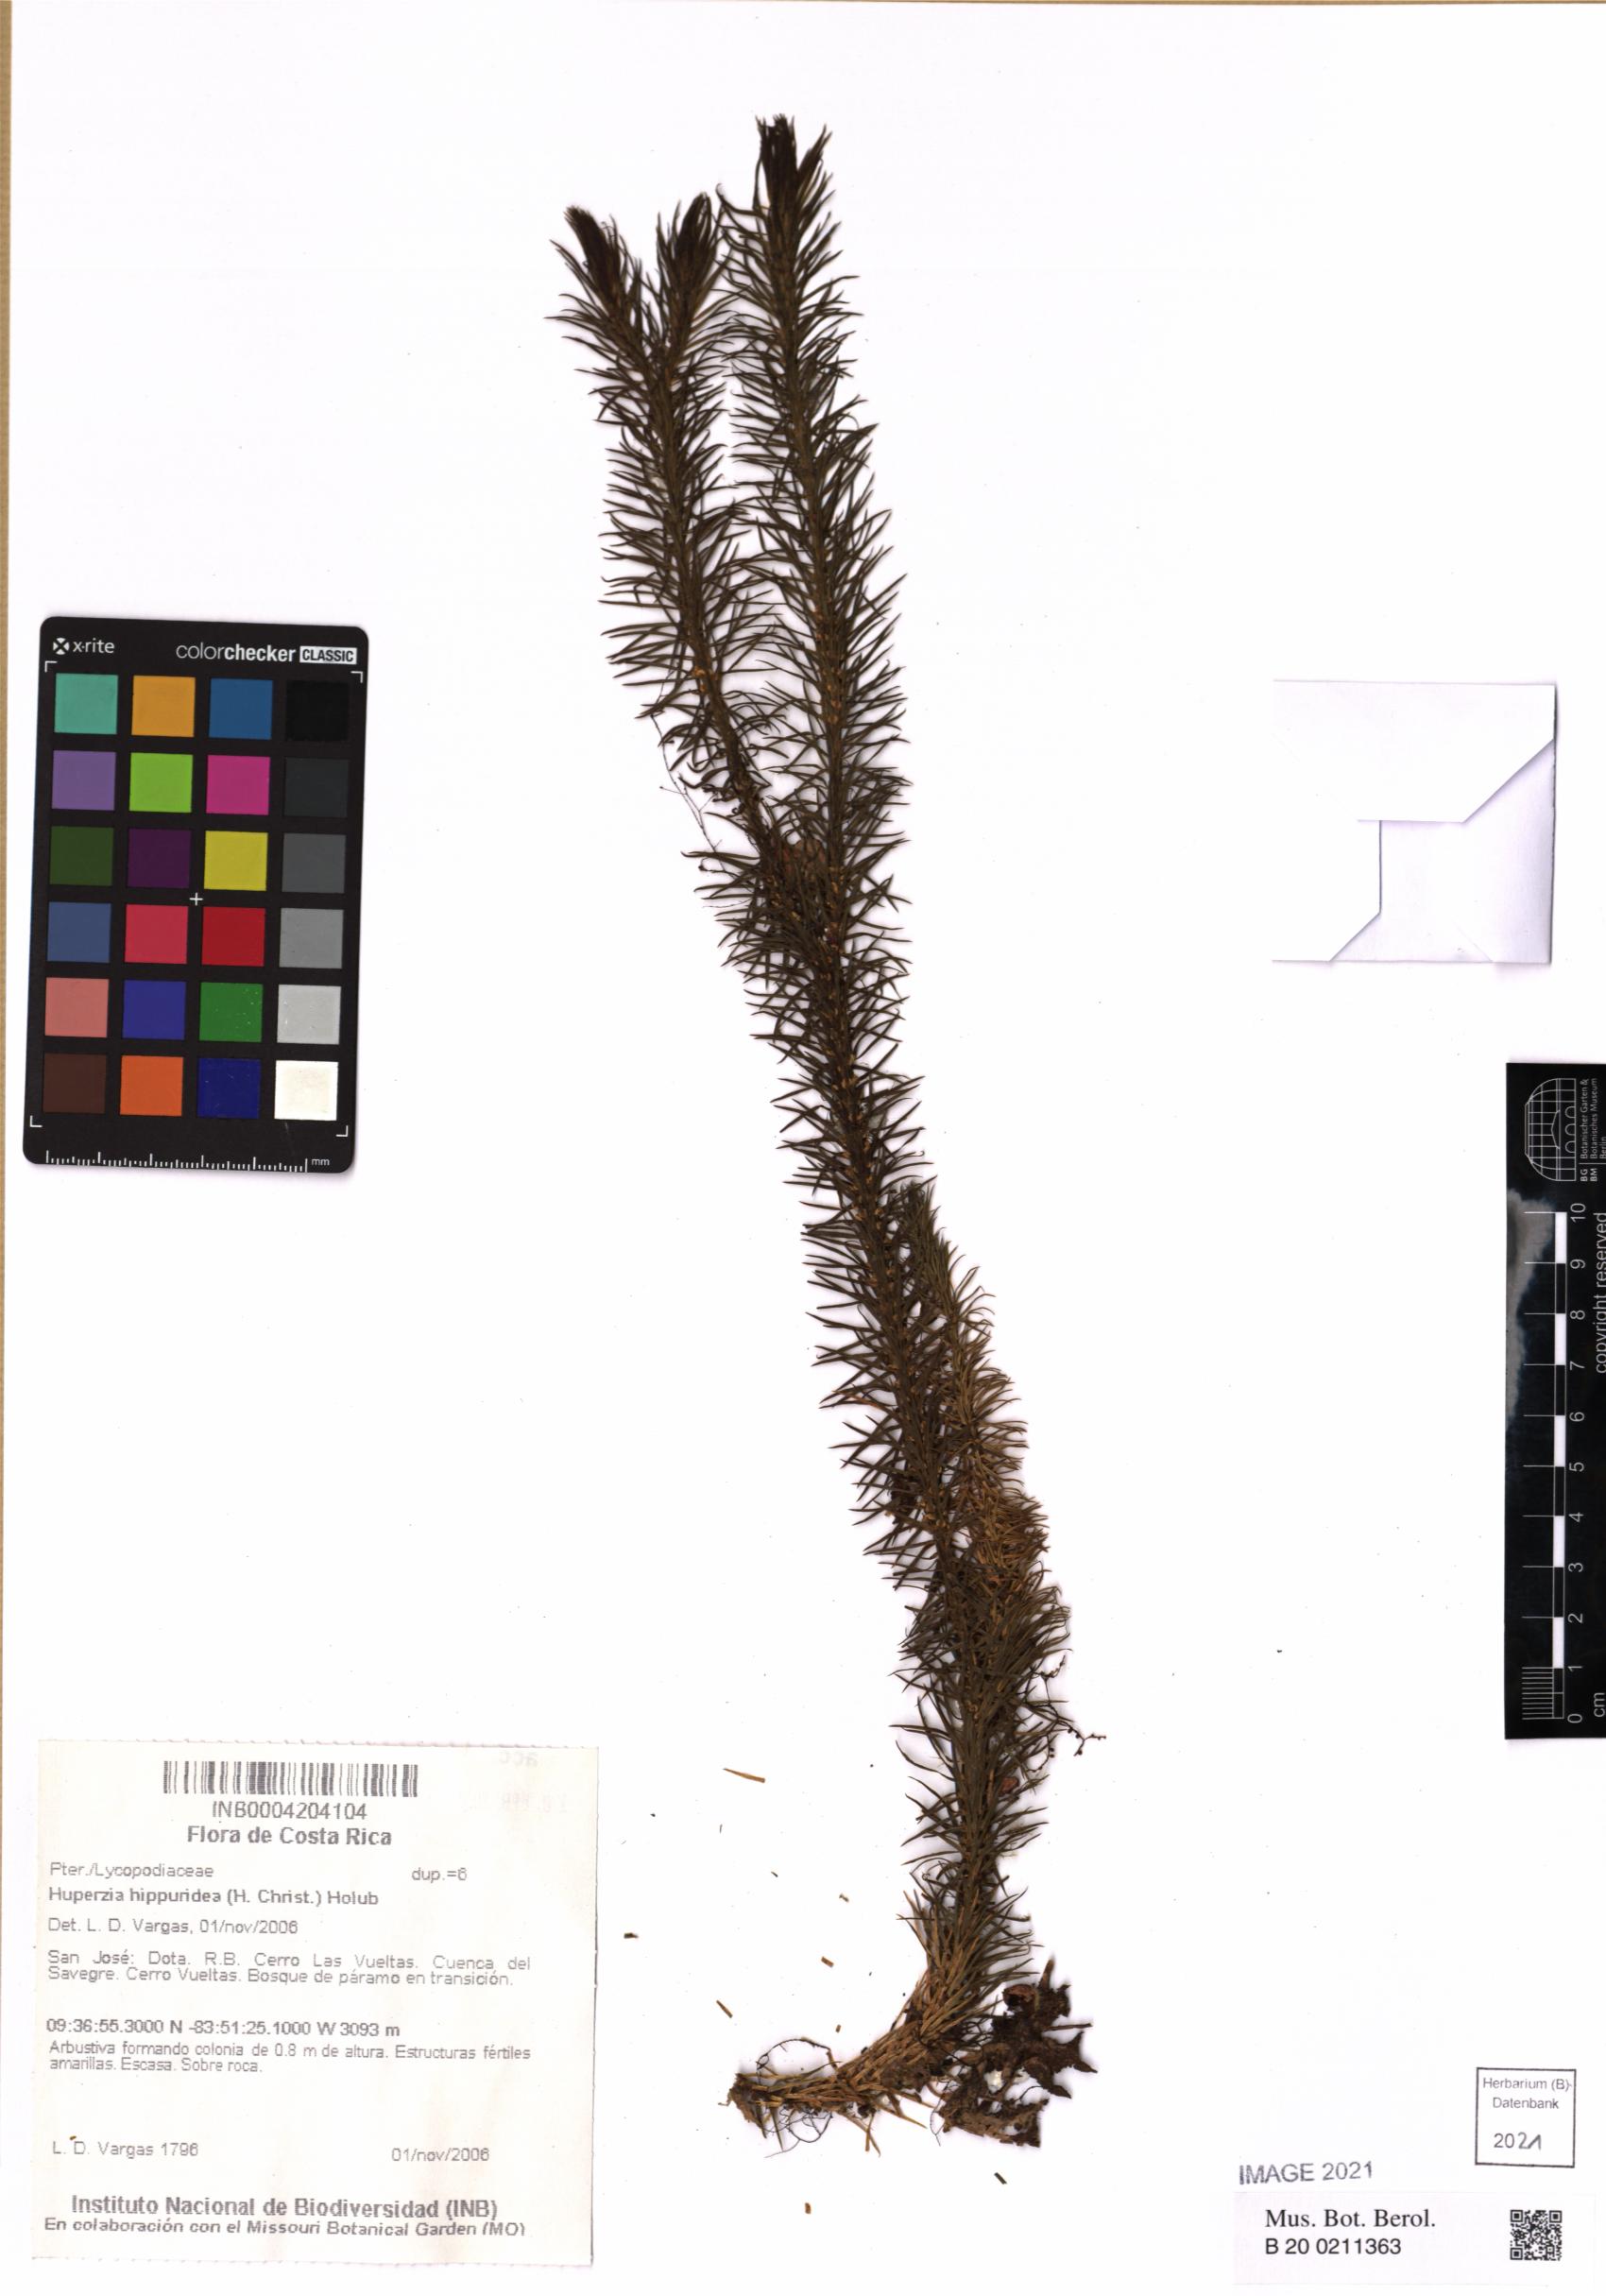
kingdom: Plantae
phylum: Tracheophyta
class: Lycopodiopsida
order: Lycopodiales
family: Lycopodiaceae
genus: Phlegmariurus
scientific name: Phlegmariurus hippurideus
